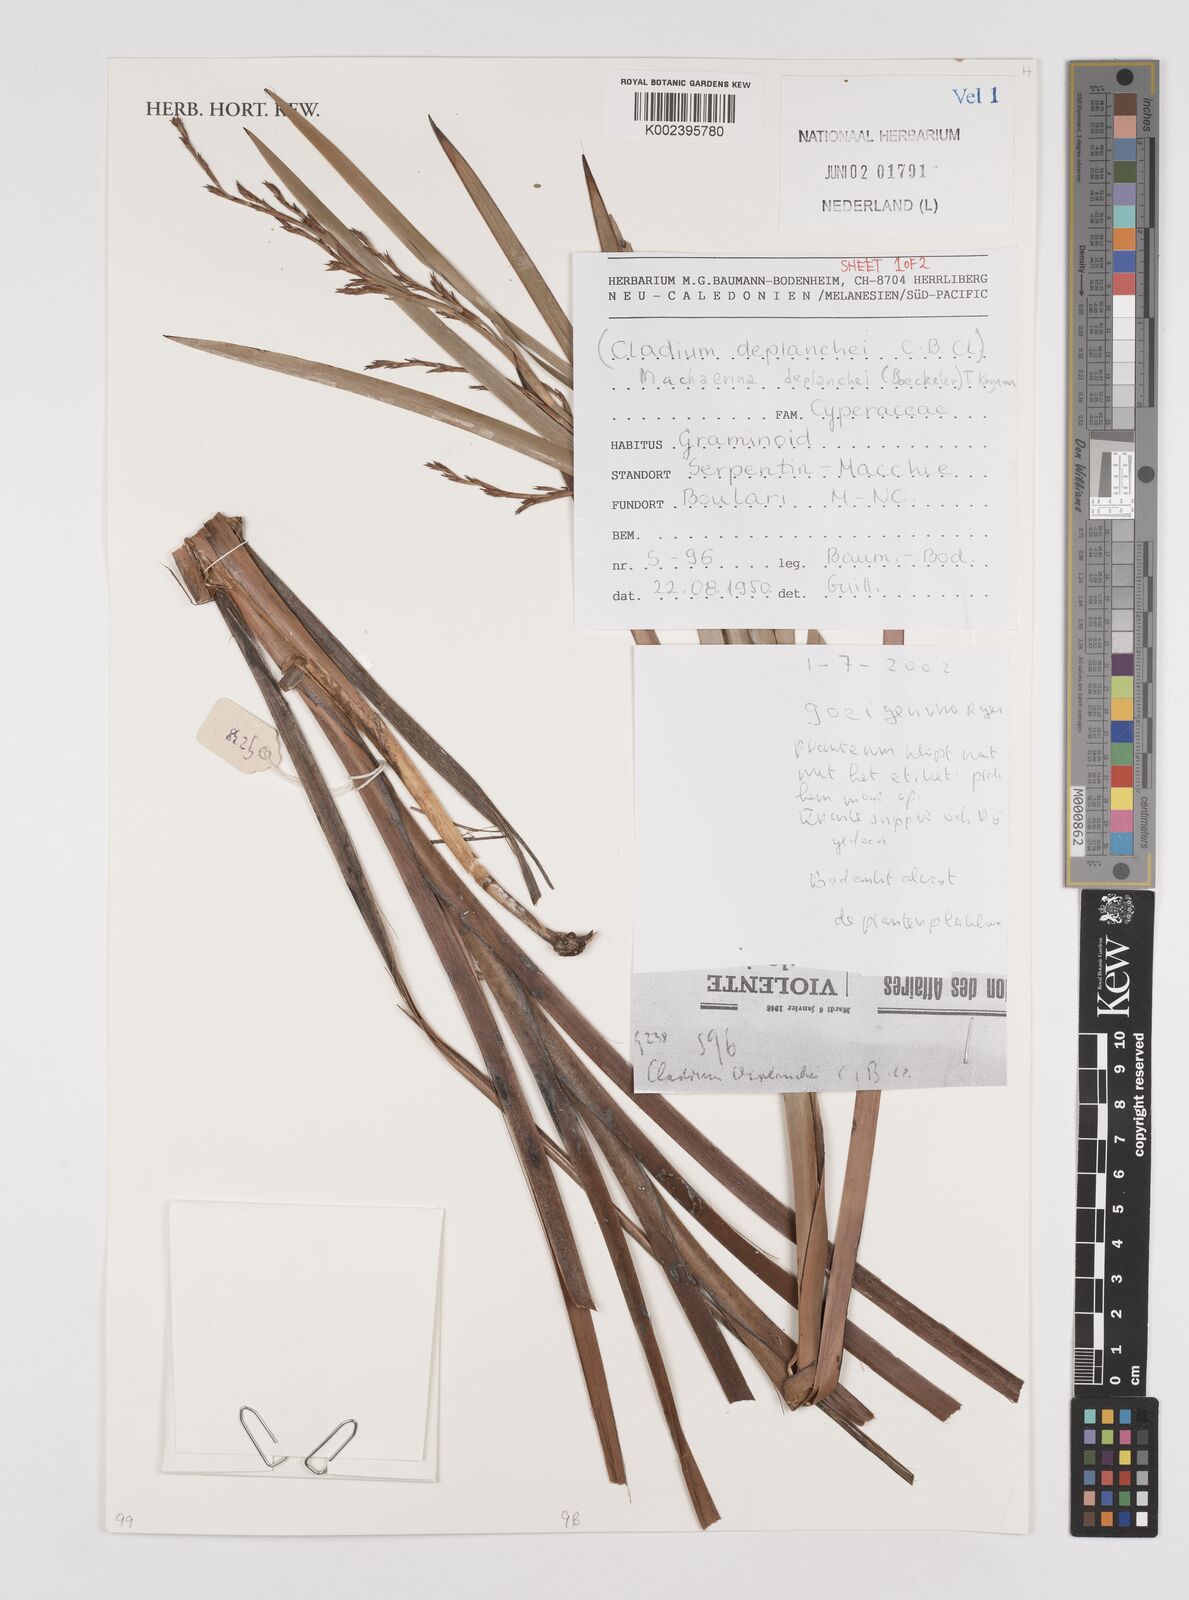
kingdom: Plantae
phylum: Tracheophyta
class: Liliopsida
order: Poales
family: Cyperaceae
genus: Machaerina
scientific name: Machaerina deplanchei
